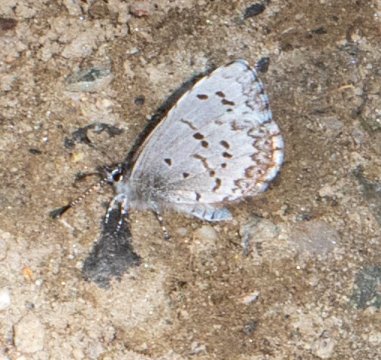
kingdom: Animalia
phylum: Arthropoda
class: Insecta
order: Lepidoptera
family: Lycaenidae
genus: Celastrina
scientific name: Celastrina lucia
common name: Northern Spring Azure
